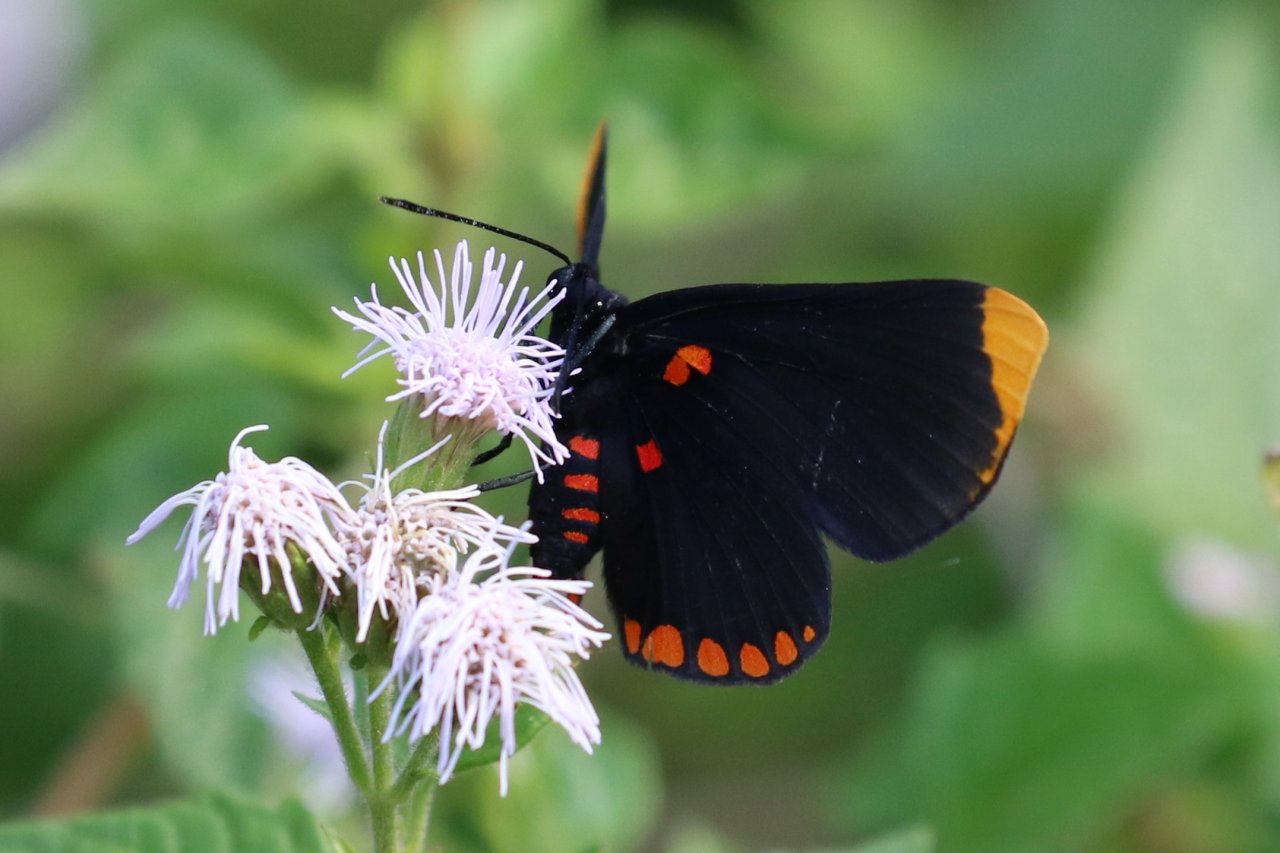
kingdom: Animalia
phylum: Arthropoda
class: Insecta
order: Lepidoptera
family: Lycaenidae
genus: Melanis
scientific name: Melanis pixe
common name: Red-bordered Pixie
